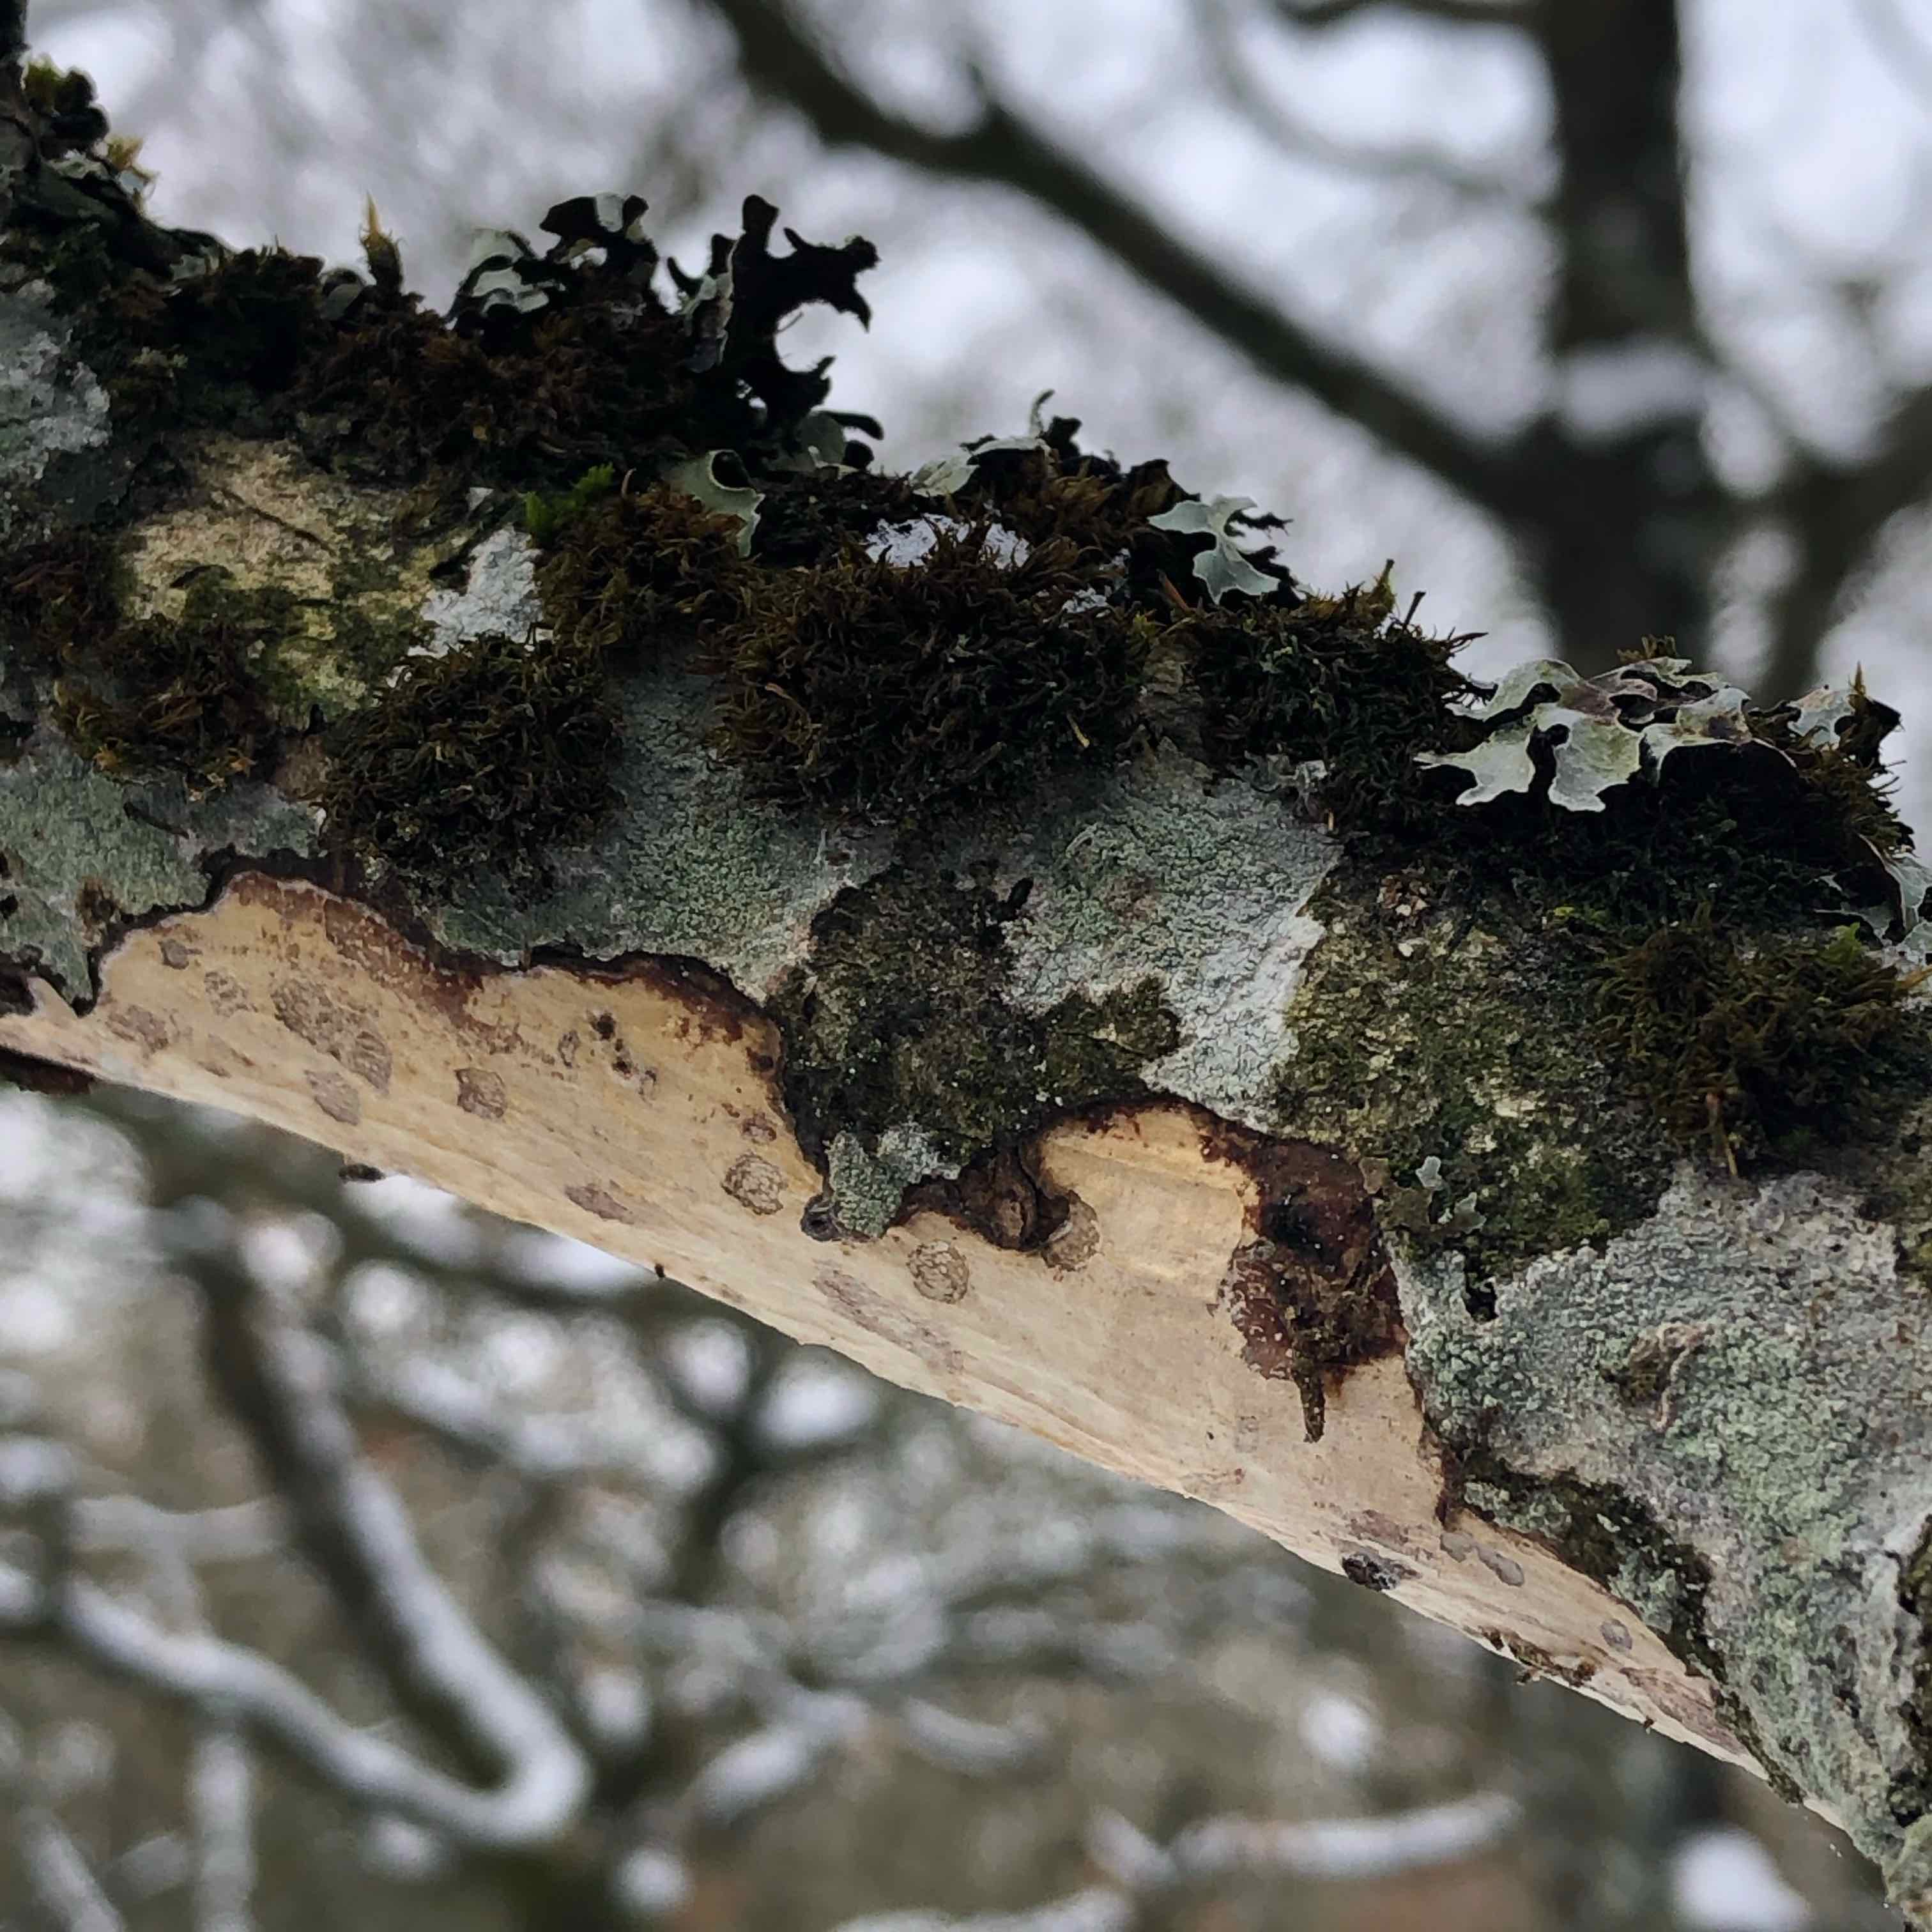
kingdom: Fungi
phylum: Basidiomycota
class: Agaricomycetes
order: Corticiales
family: Vuilleminiaceae
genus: Vuilleminia
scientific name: Vuilleminia comedens
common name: almindelig barksprænger
